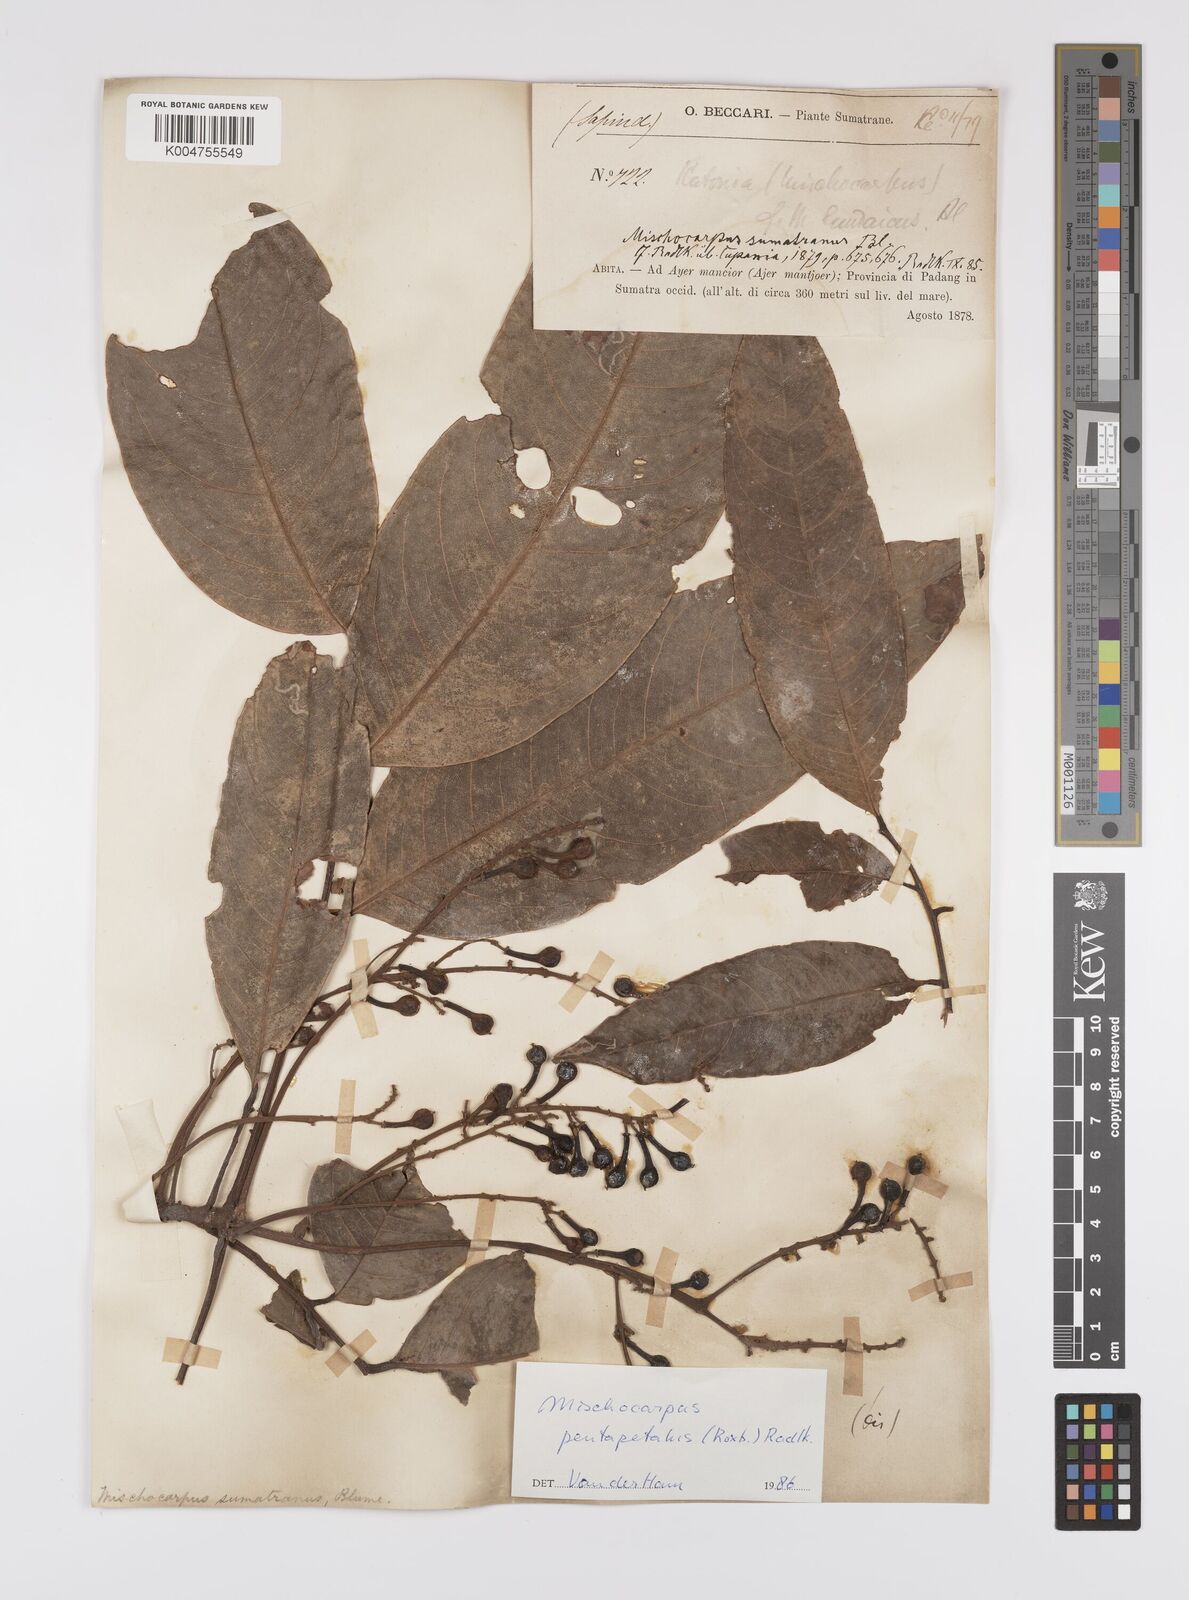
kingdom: Plantae
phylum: Tracheophyta
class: Magnoliopsida
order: Sapindales
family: Sapindaceae
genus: Mischocarpus
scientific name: Mischocarpus pentapetalus
